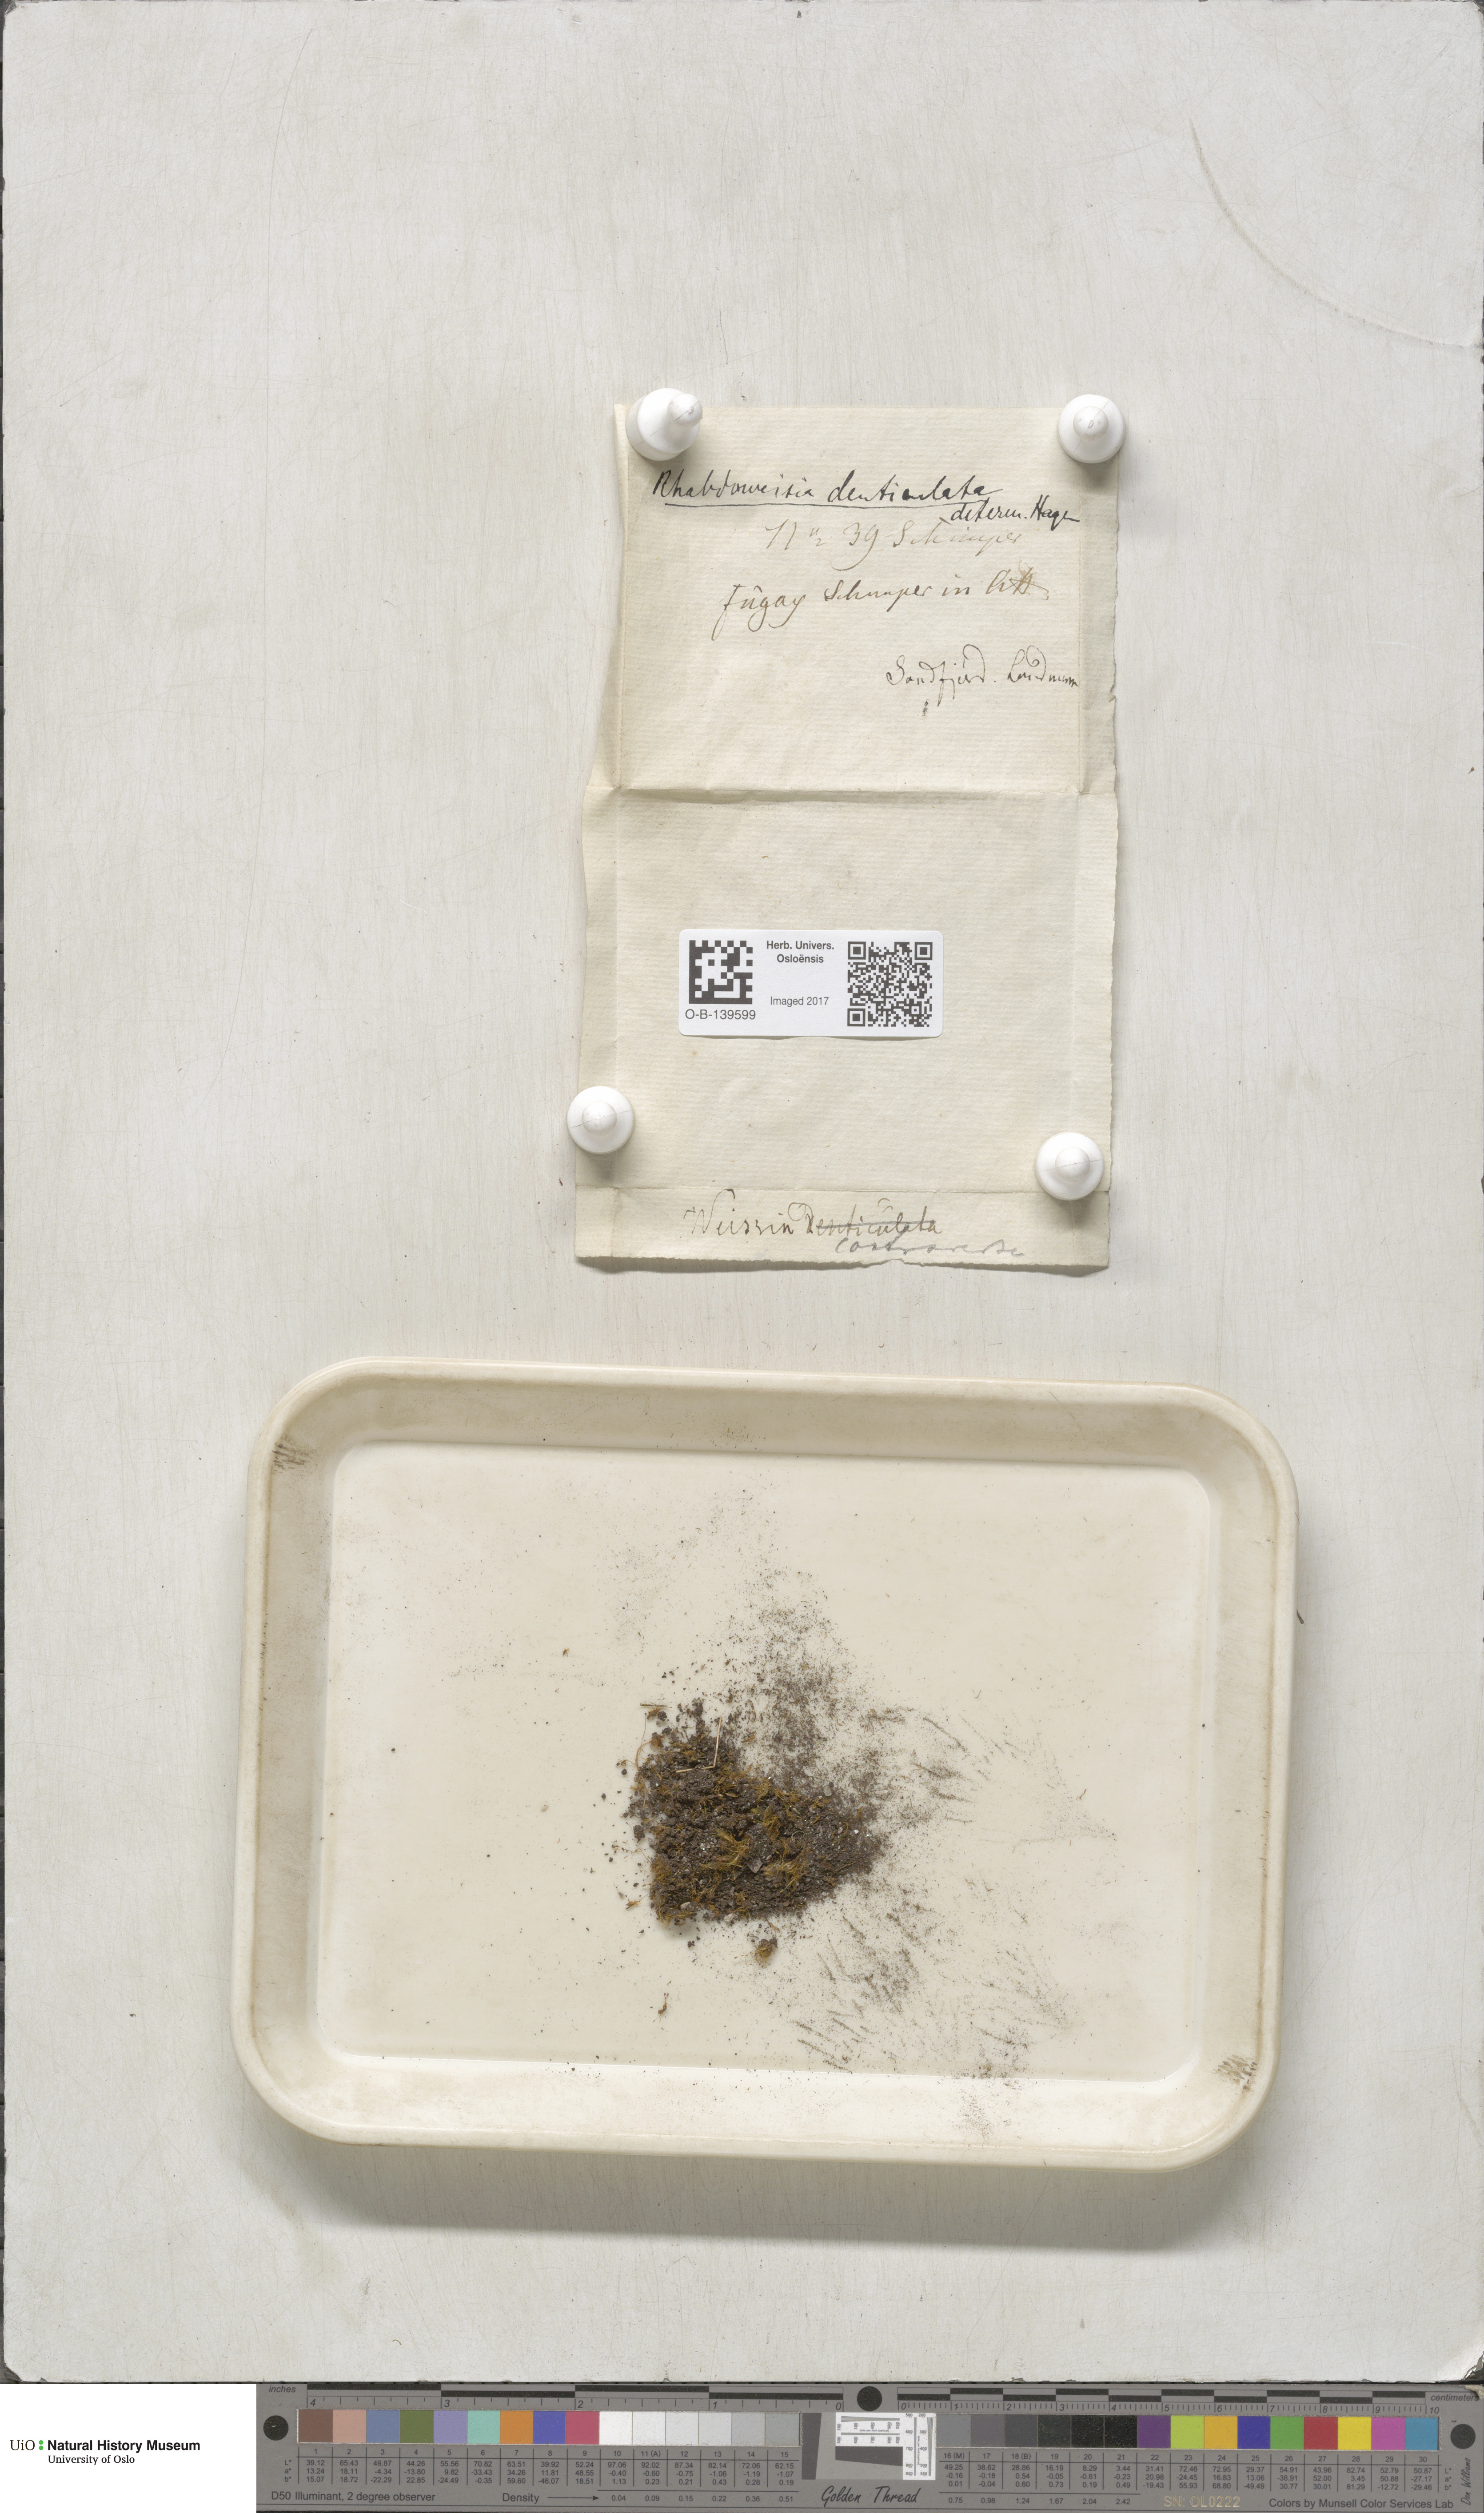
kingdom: Plantae
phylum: Bryophyta
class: Bryopsida
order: Dicranales
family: Rhabdoweisiaceae
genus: Rhabdoweisia
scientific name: Rhabdoweisia crispata
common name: Fine-toothed streak moss
